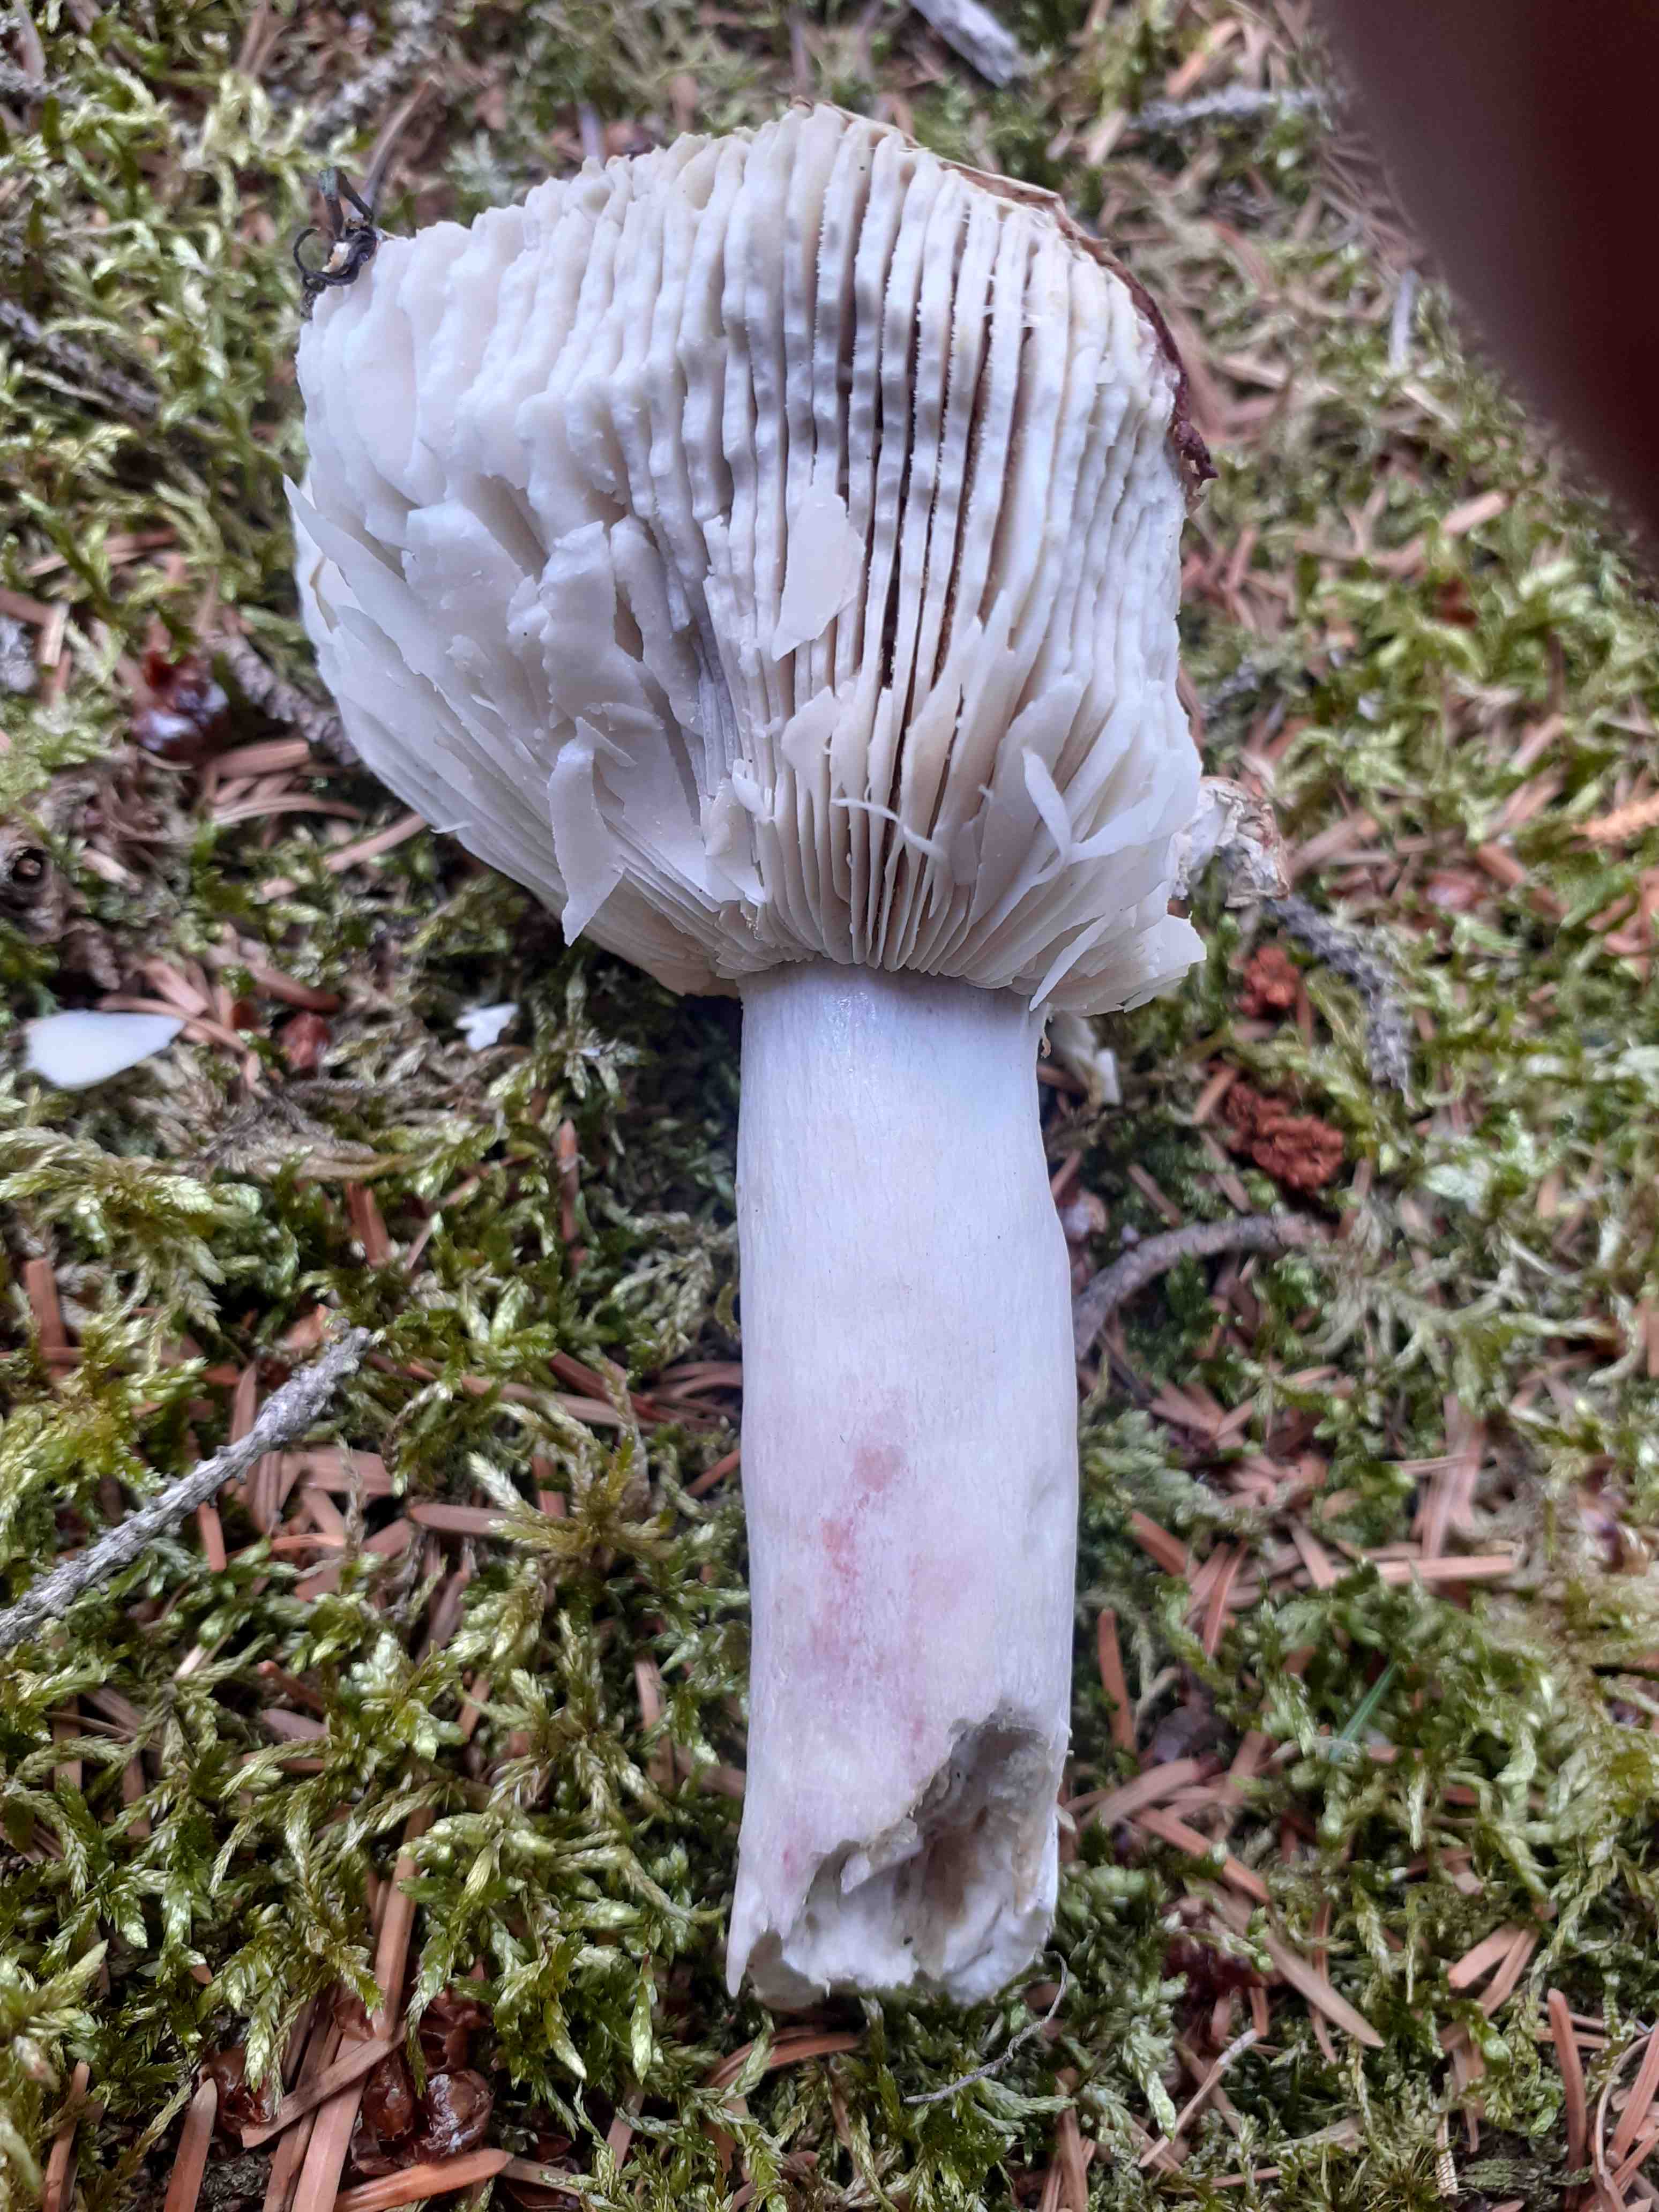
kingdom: Fungi
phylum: Basidiomycota
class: Agaricomycetes
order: Russulales
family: Russulaceae
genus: Russula
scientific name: Russula
